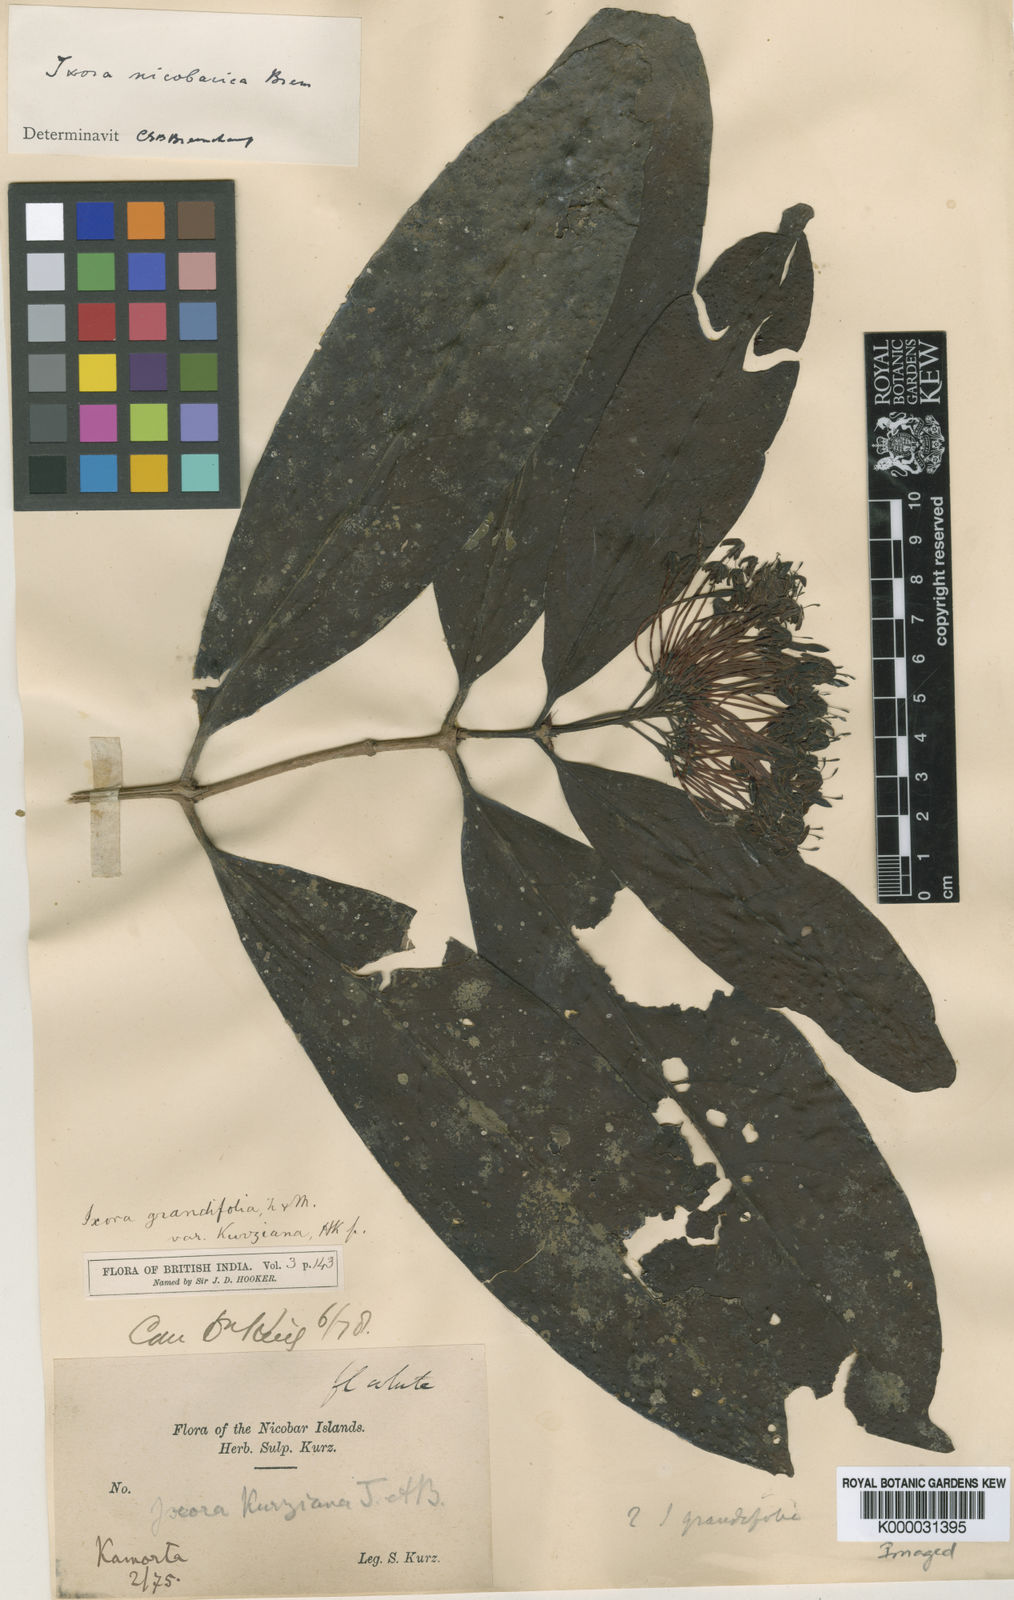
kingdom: Plantae
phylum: Tracheophyta
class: Magnoliopsida
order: Gentianales
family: Rubiaceae
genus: Ixora
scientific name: Ixora nicobarica
